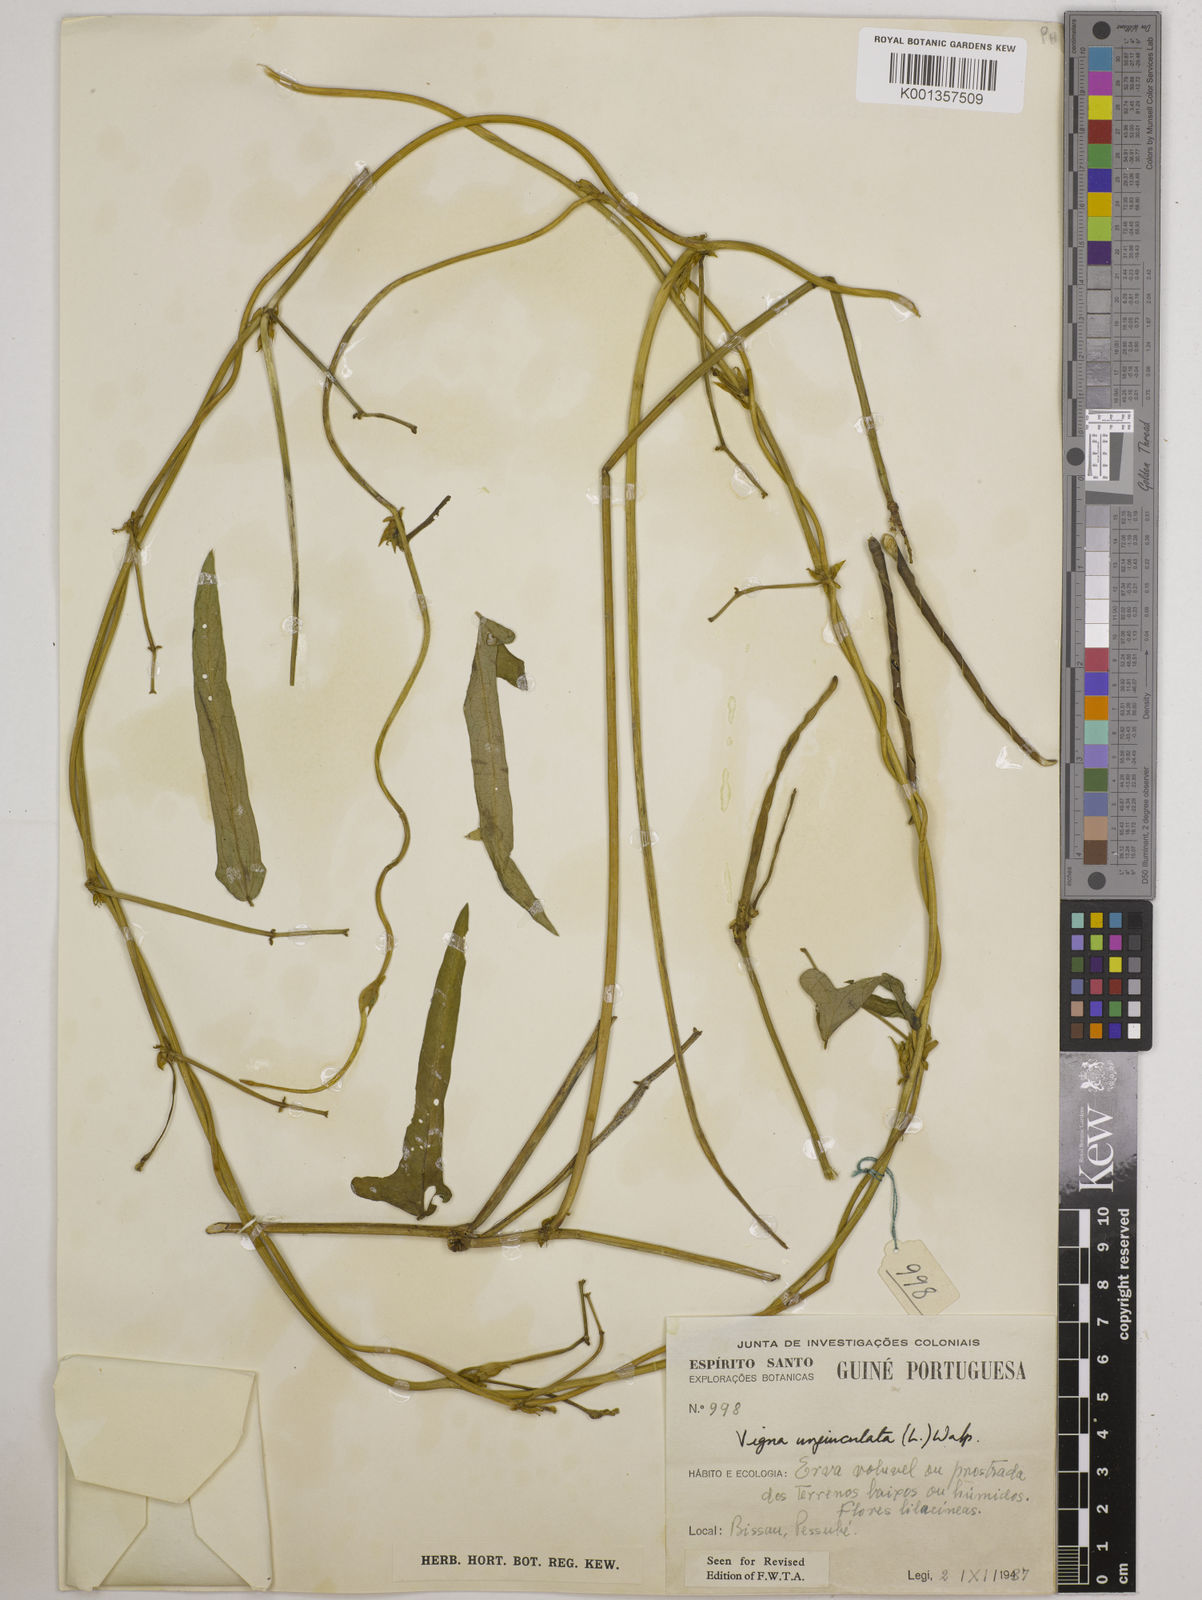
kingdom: Plantae
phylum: Tracheophyta
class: Magnoliopsida
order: Fabales
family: Fabaceae
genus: Vigna
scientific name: Vigna
